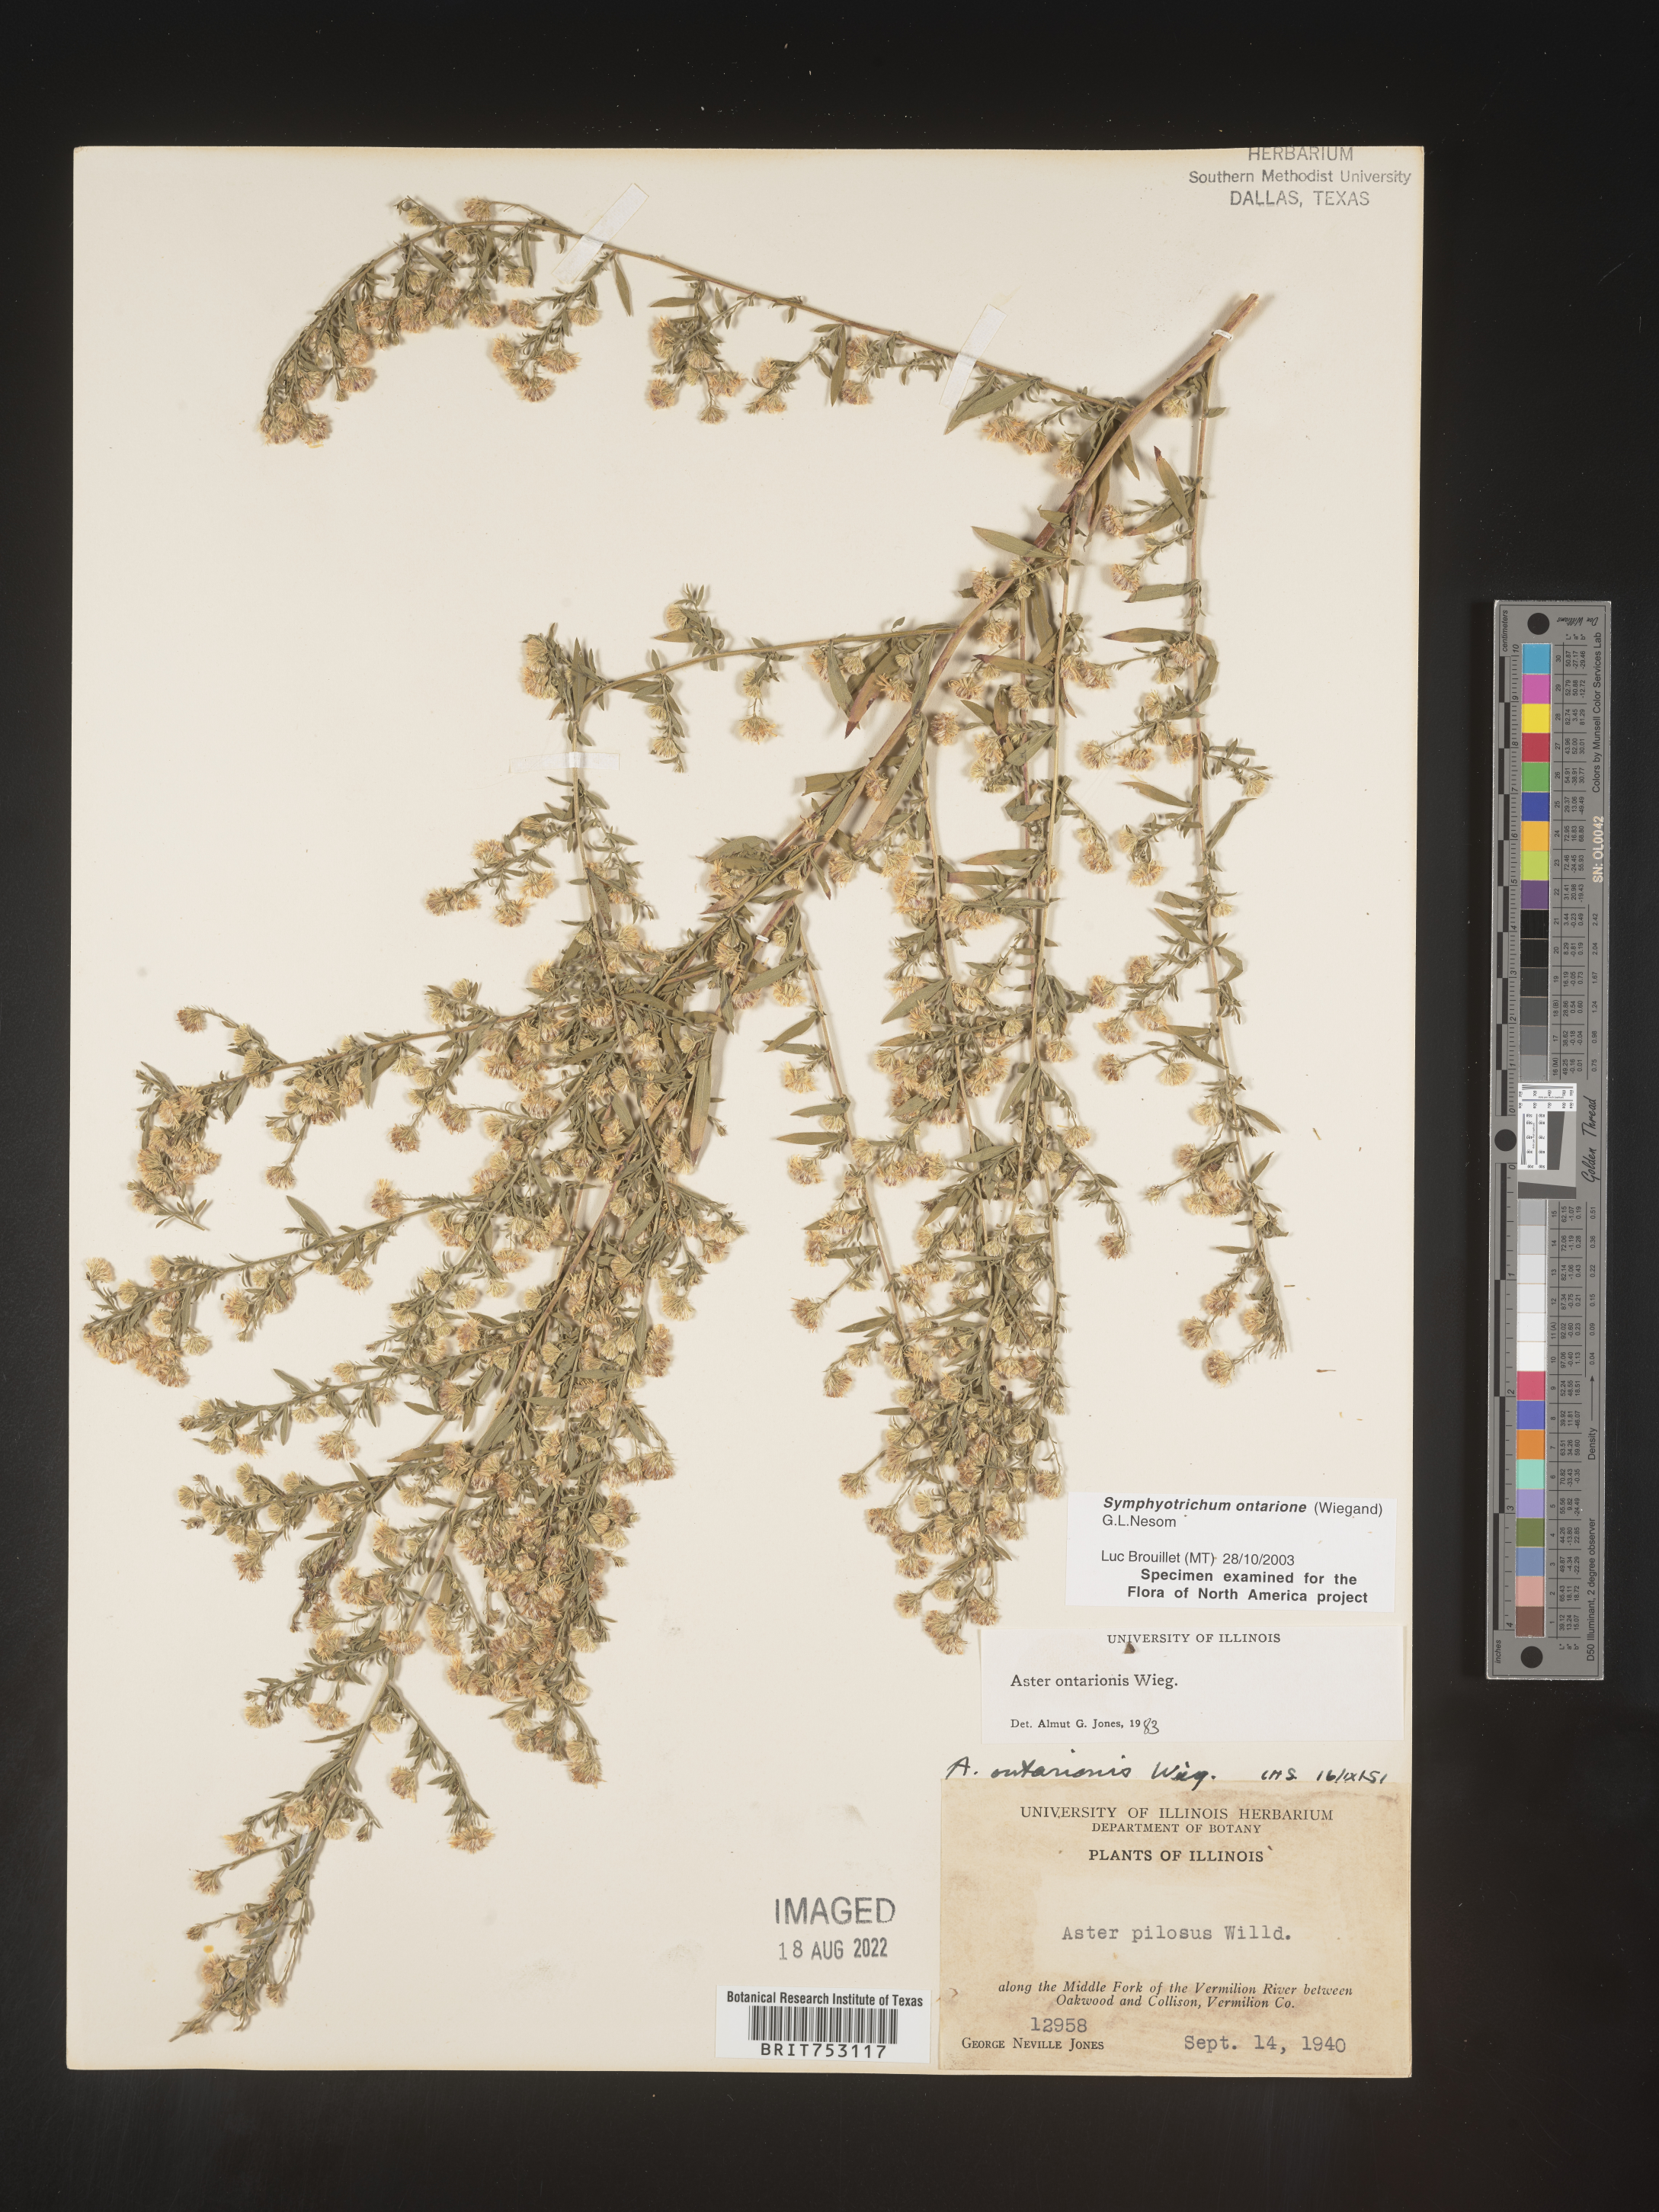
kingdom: Plantae
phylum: Tracheophyta
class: Magnoliopsida
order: Asterales
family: Asteraceae
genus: Symphyotrichum
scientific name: Symphyotrichum ontarionis
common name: Bottomland aster
